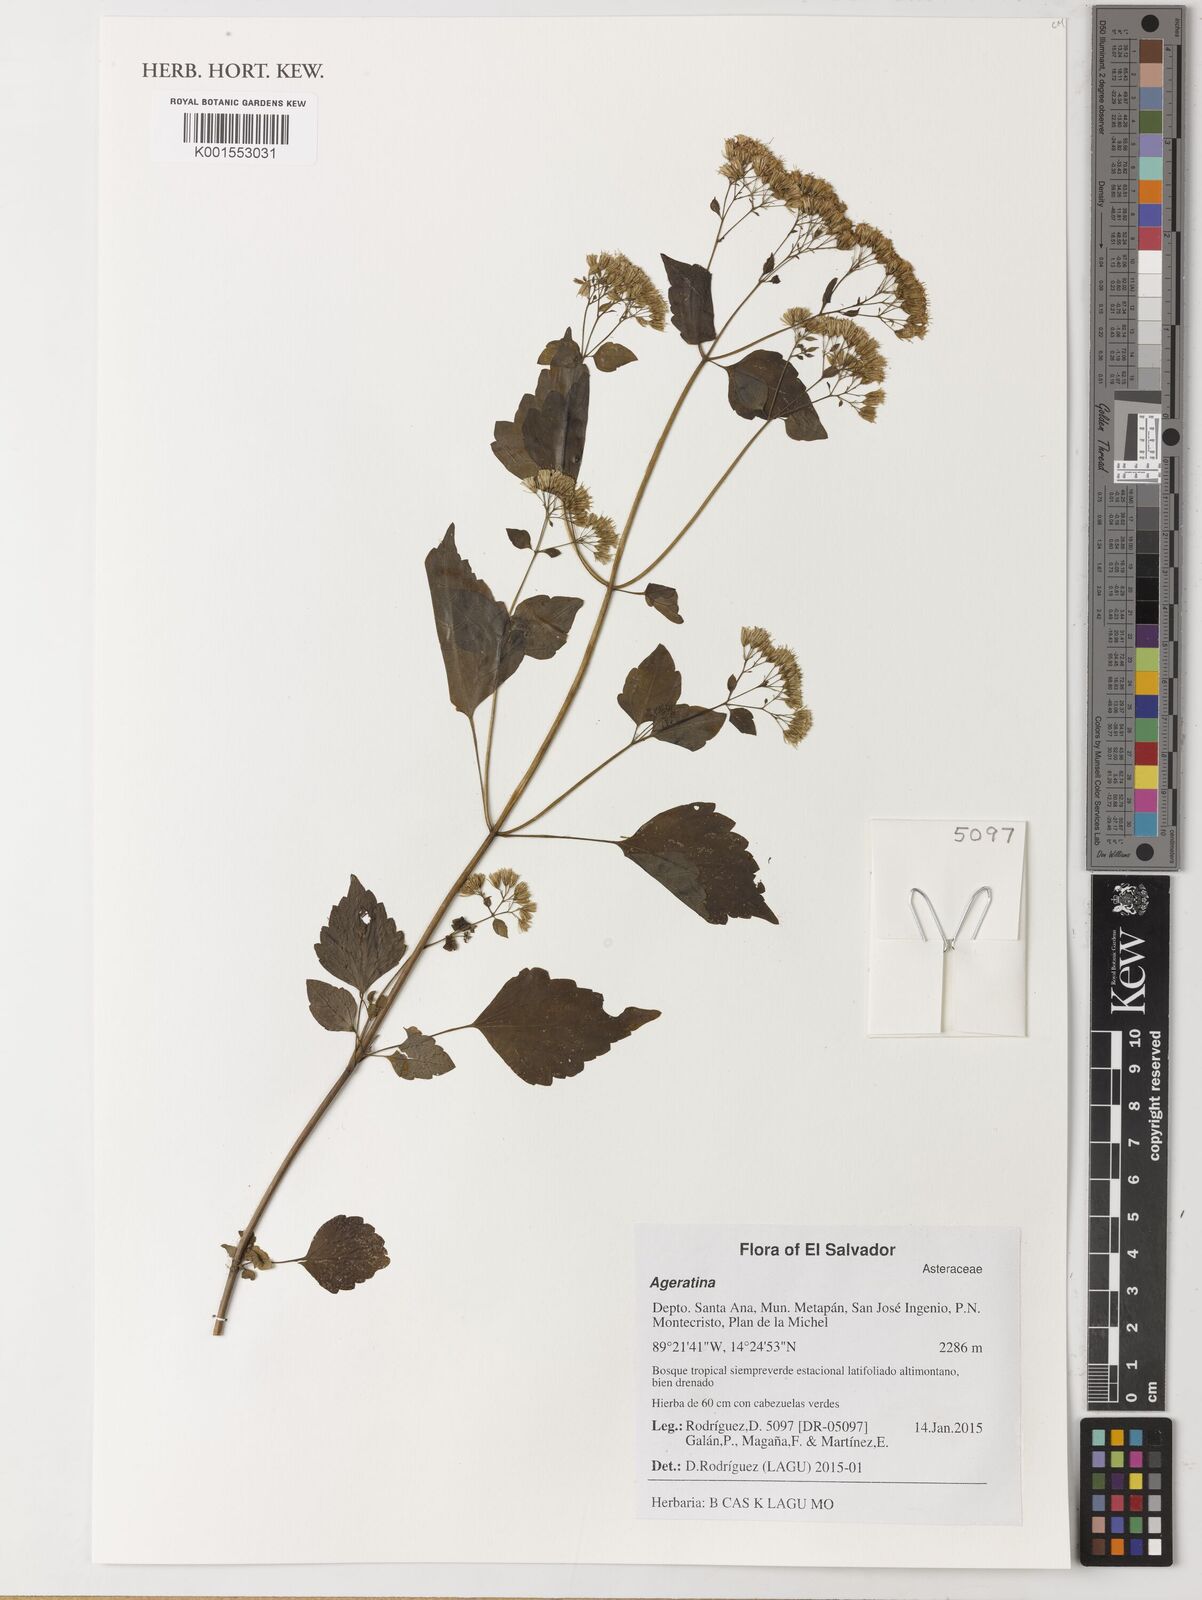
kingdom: Plantae
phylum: Tracheophyta
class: Magnoliopsida
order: Asterales
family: Asteraceae
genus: Ageratina
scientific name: Ageratina
